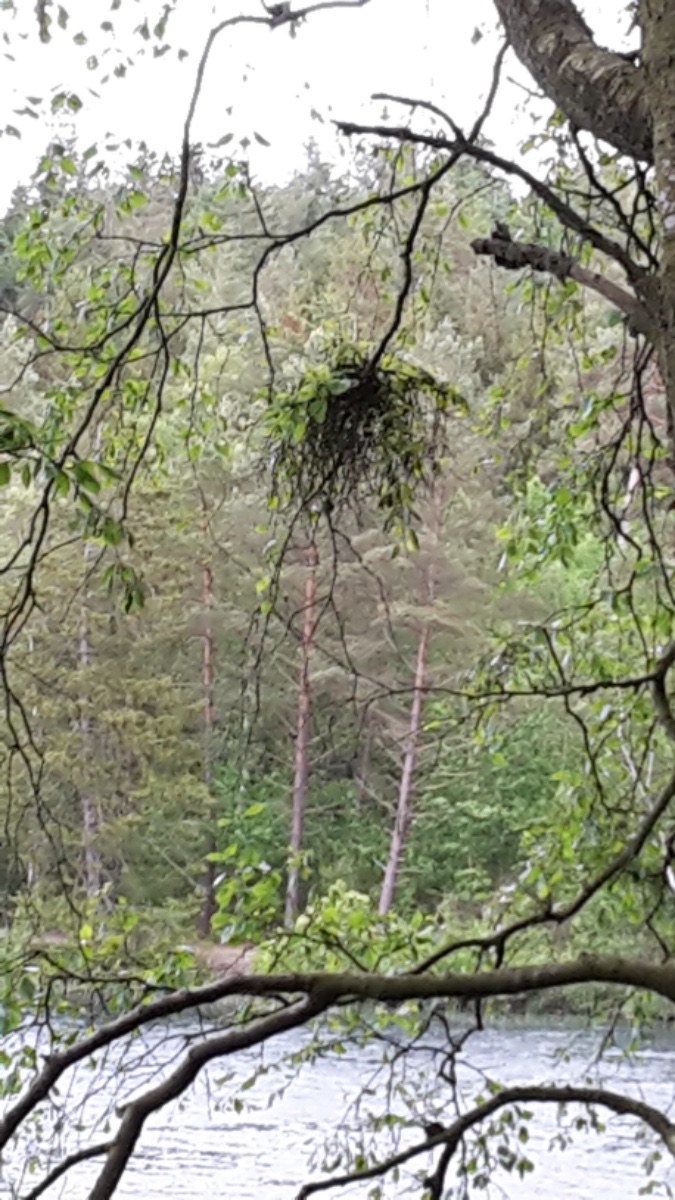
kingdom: Fungi
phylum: Ascomycota
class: Taphrinomycetes
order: Taphrinales
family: Taphrinaceae
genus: Taphrina
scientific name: Taphrina betulina
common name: hekse-sækdug
